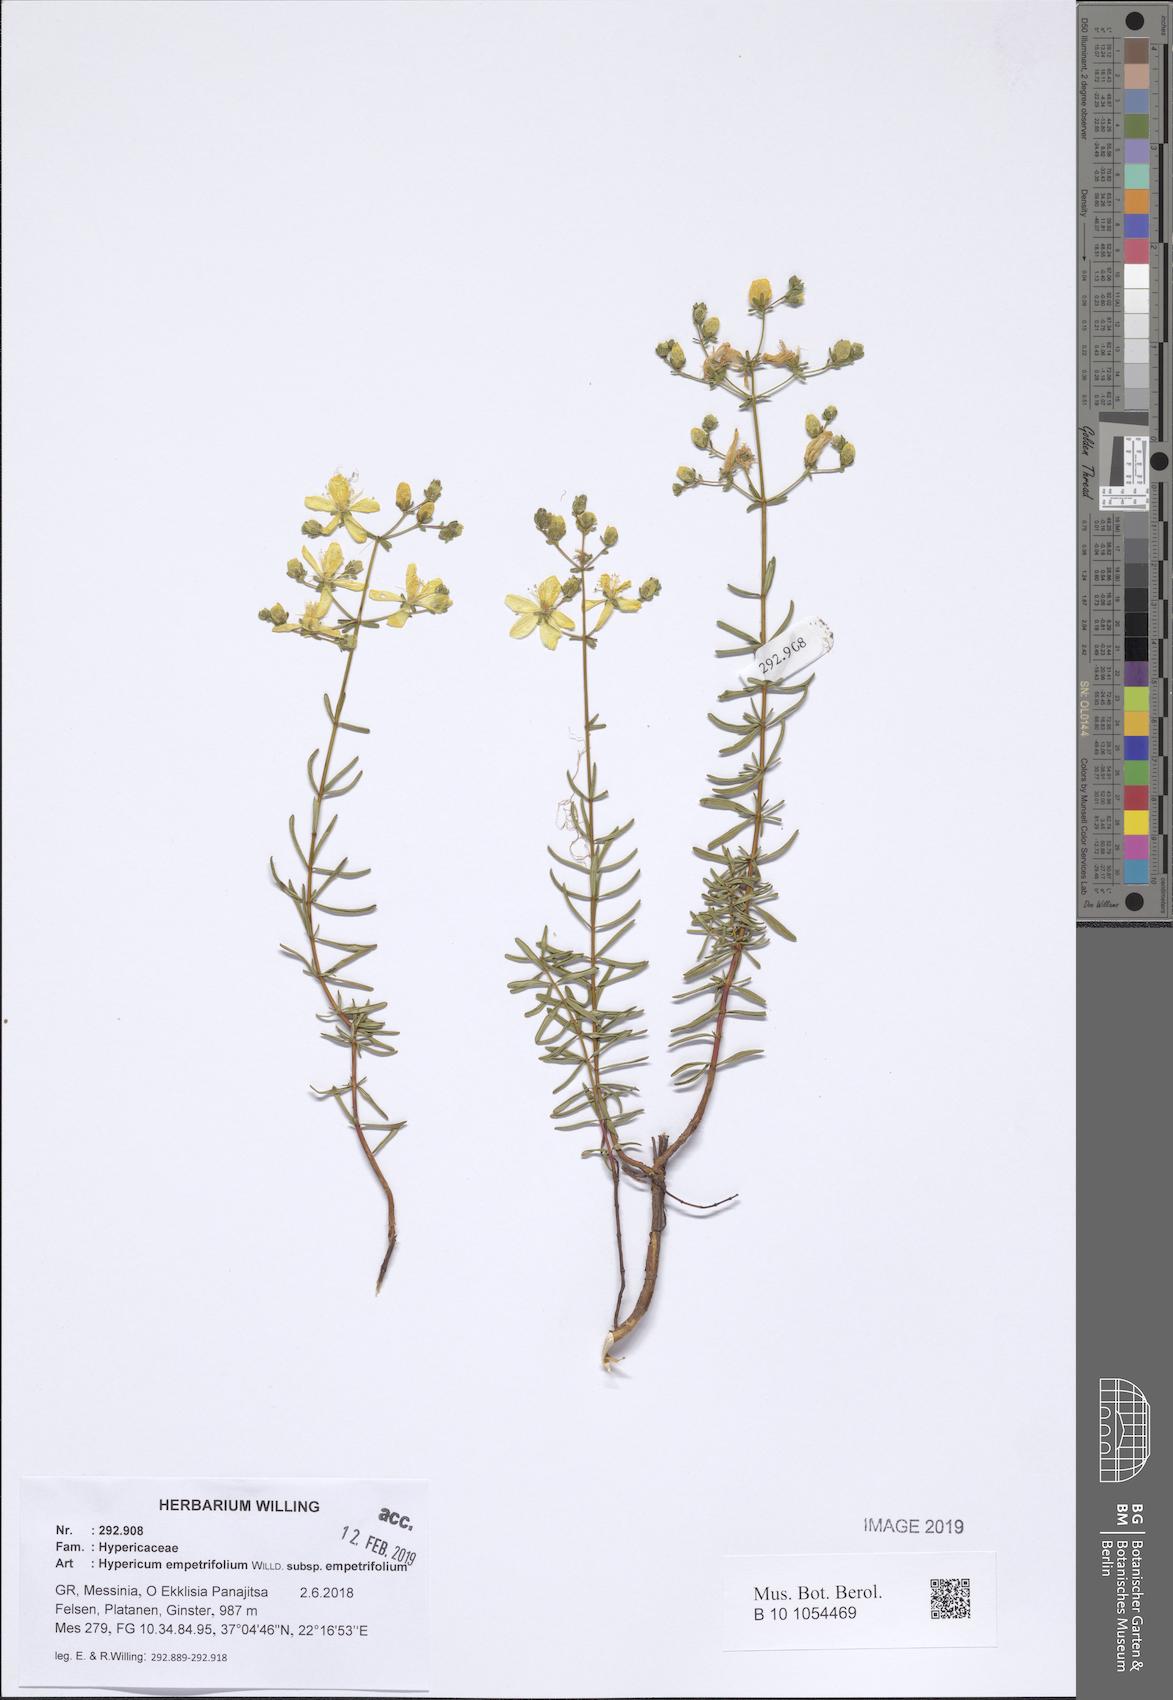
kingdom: Plantae
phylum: Tracheophyta
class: Magnoliopsida
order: Malpighiales
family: Hypericaceae
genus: Hypericum
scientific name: Hypericum empetrifolium
